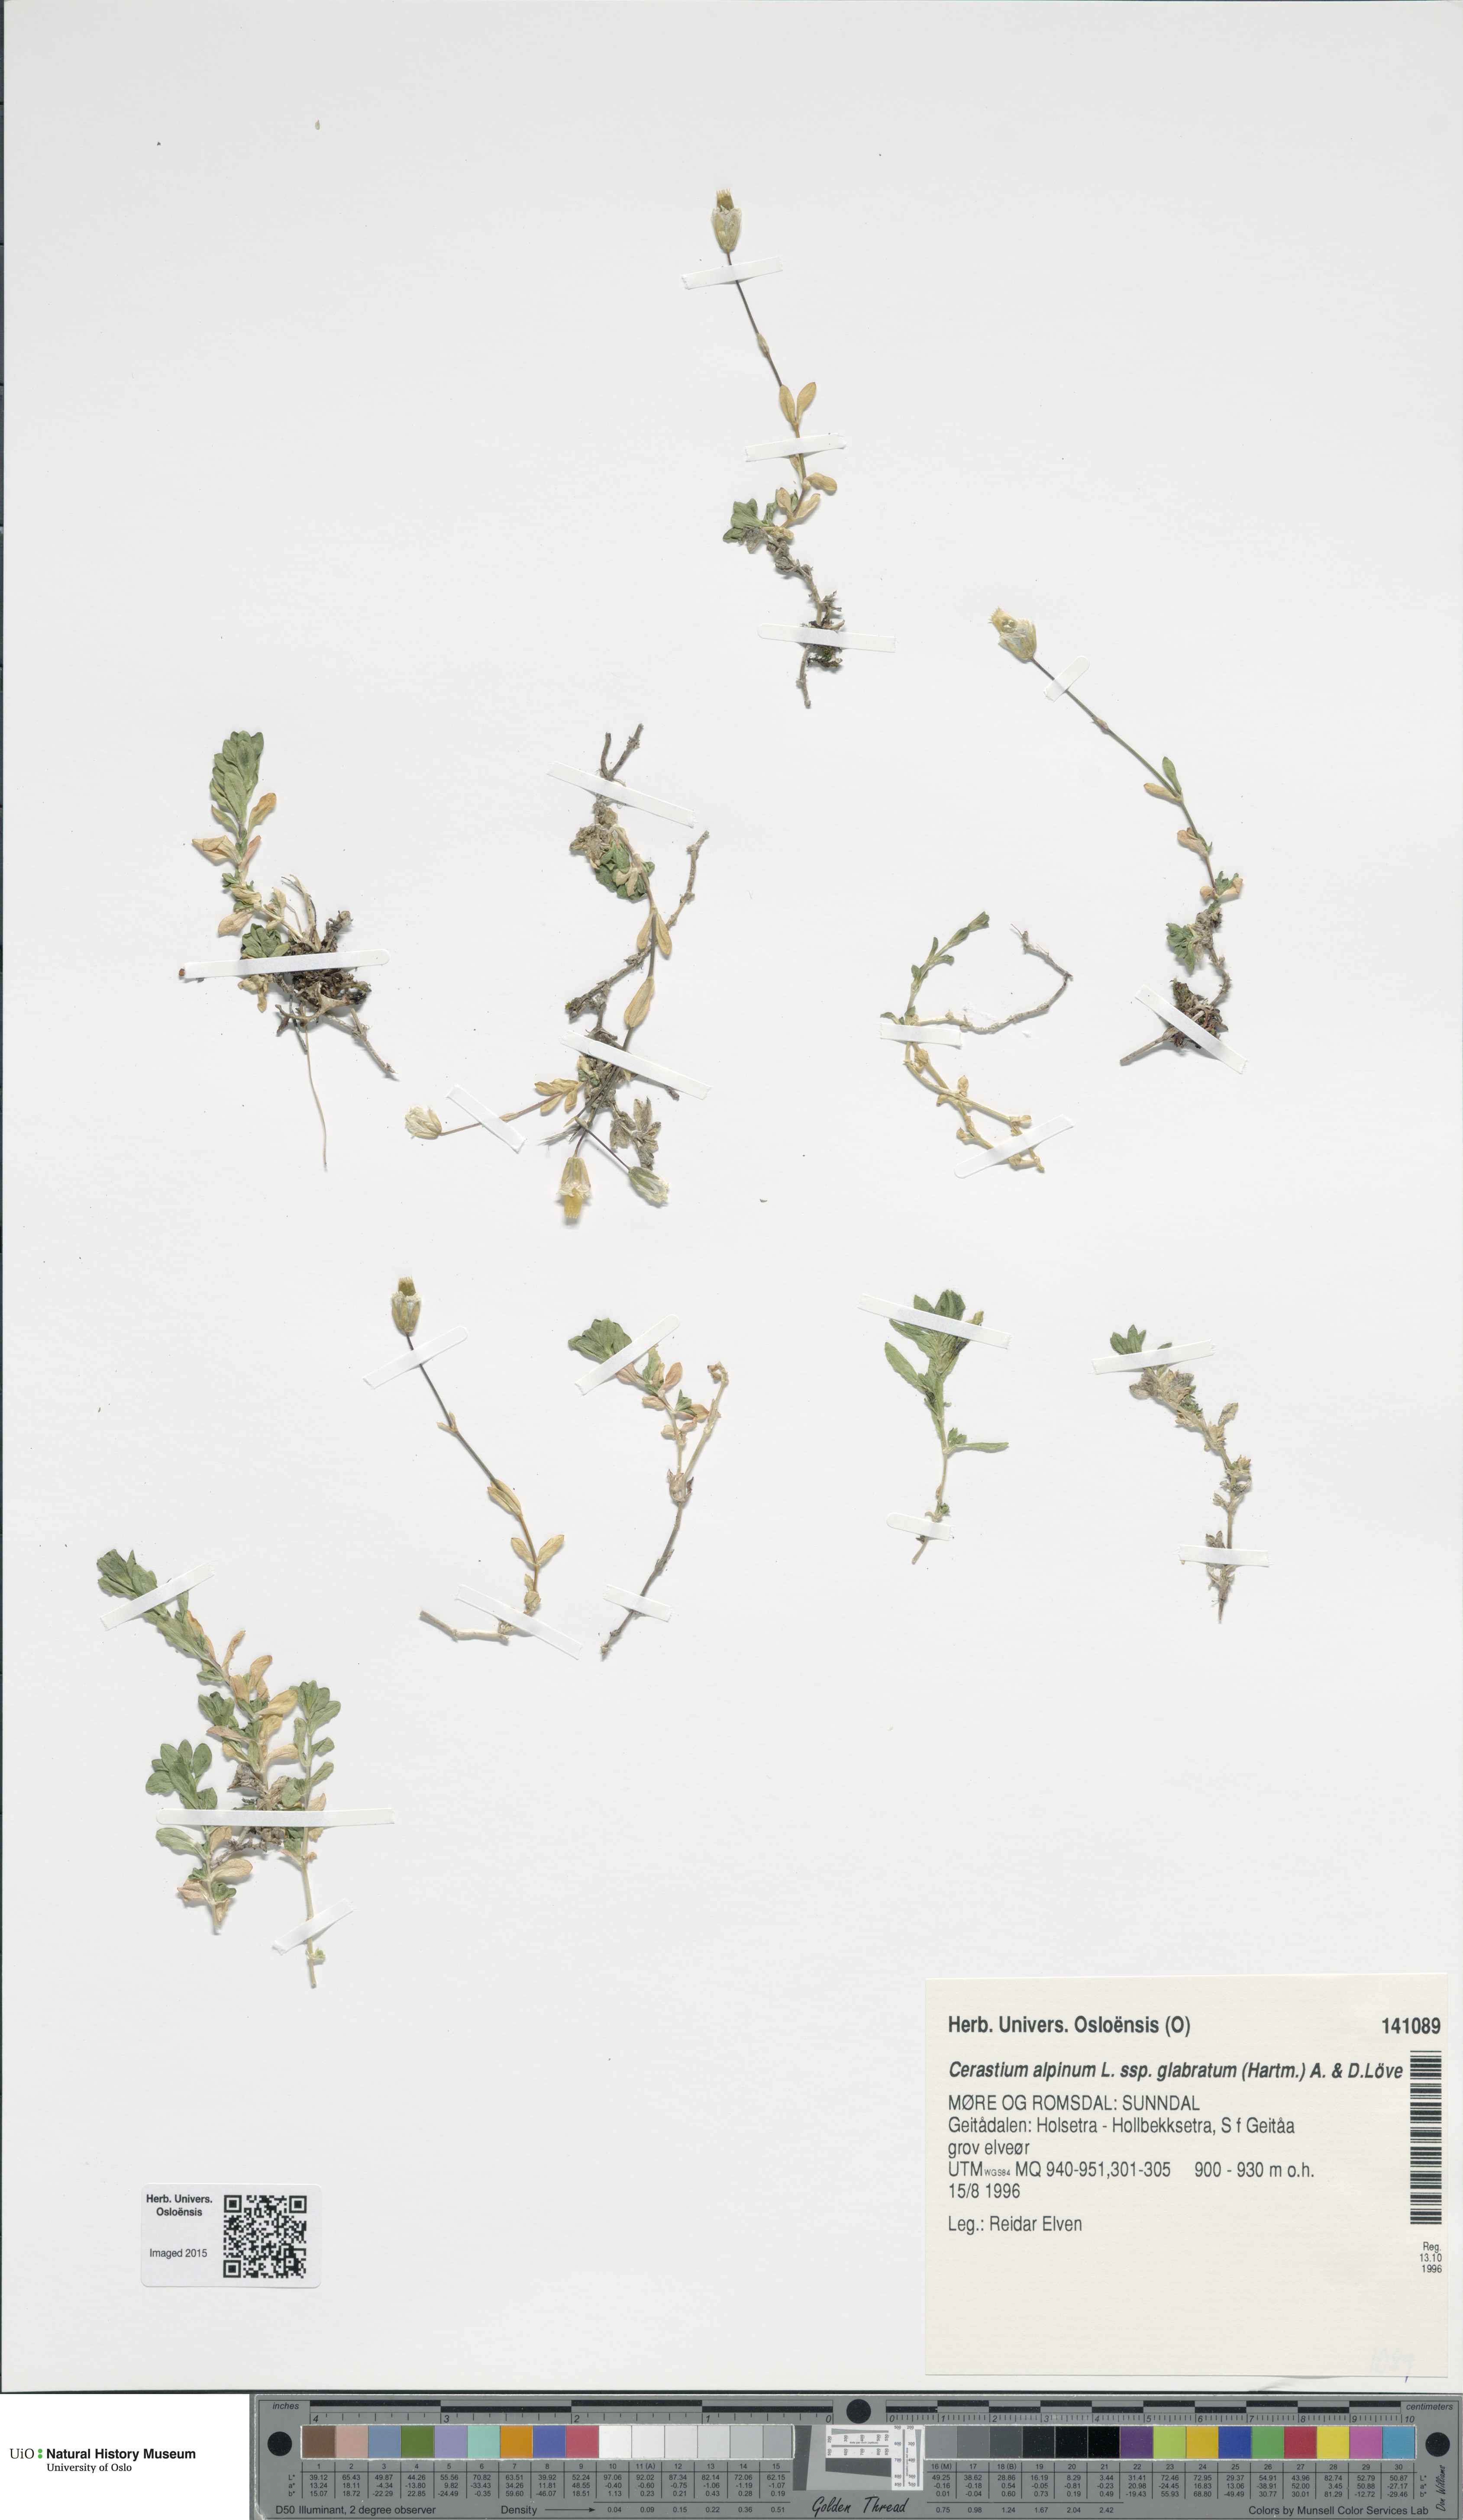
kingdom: Plantae
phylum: Tracheophyta
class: Magnoliopsida
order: Caryophyllales
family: Caryophyllaceae
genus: Cerastium
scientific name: Cerastium alpinum
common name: Alpine mouse-ear
